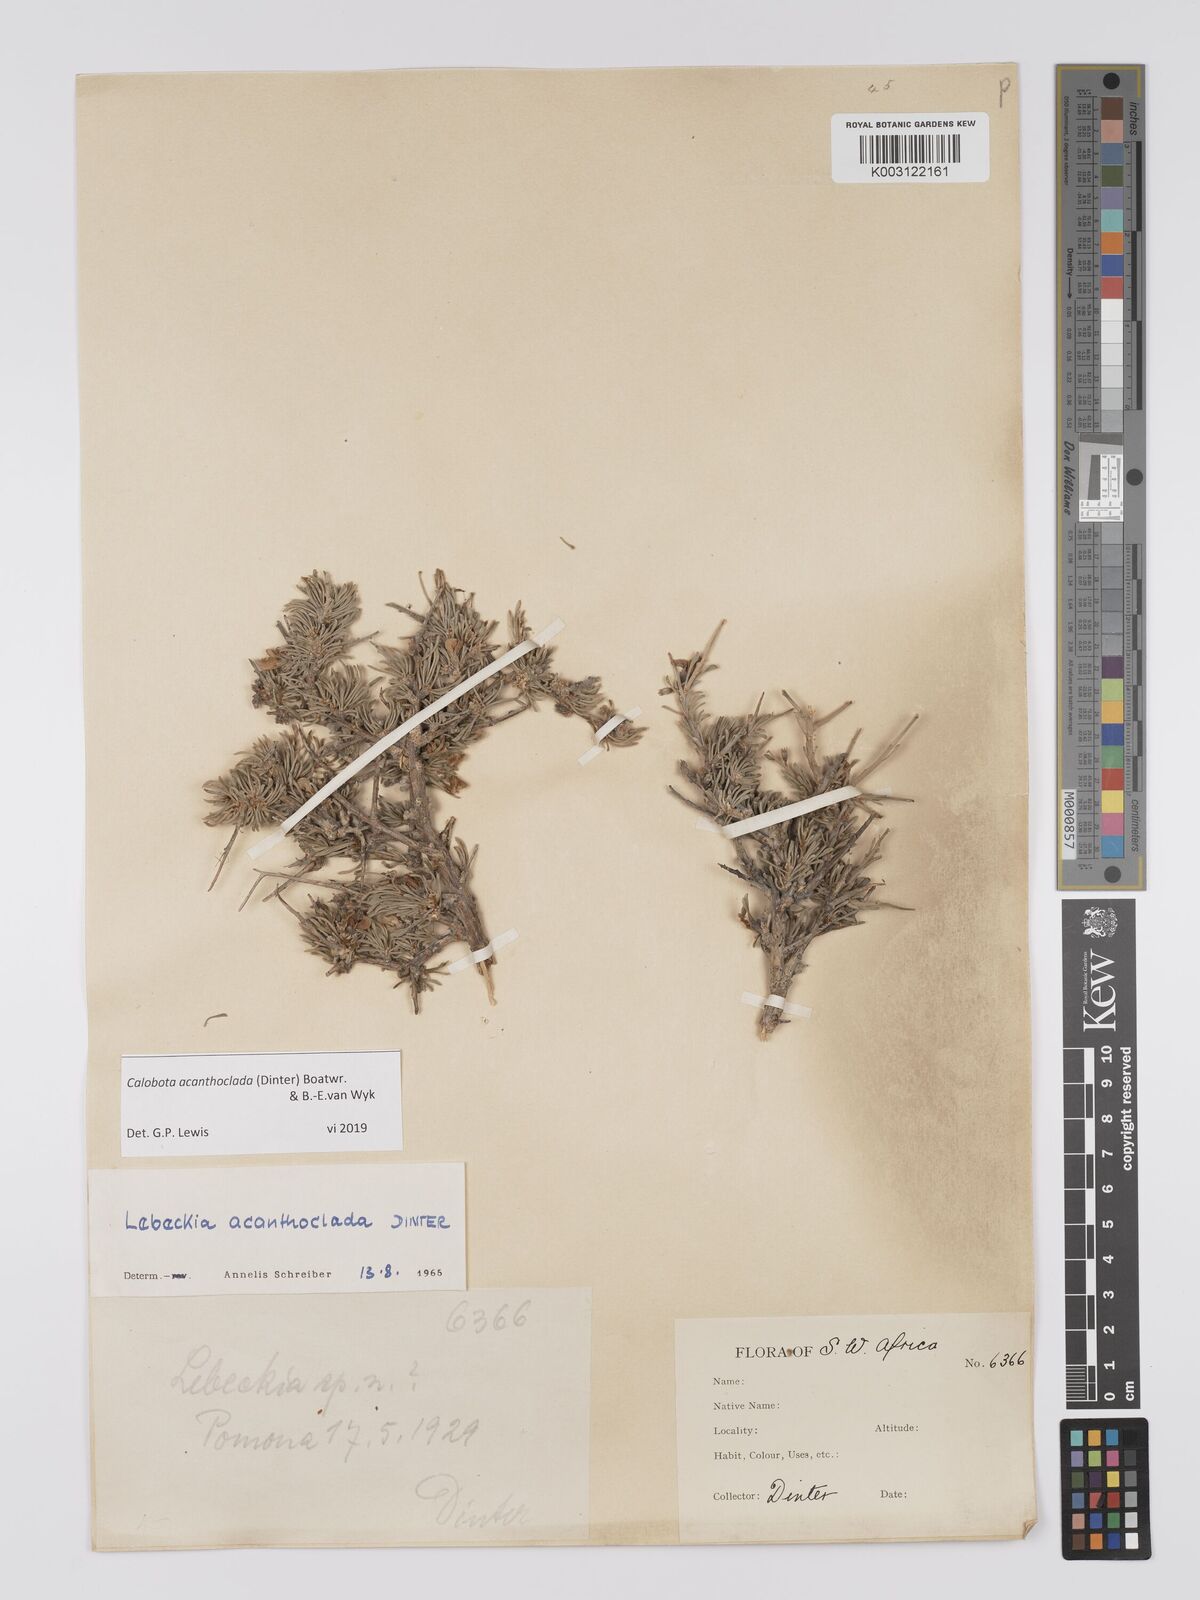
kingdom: Plantae
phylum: Tracheophyta
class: Magnoliopsida
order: Fabales
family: Fabaceae
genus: Calobota
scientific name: Calobota acanthoclada
